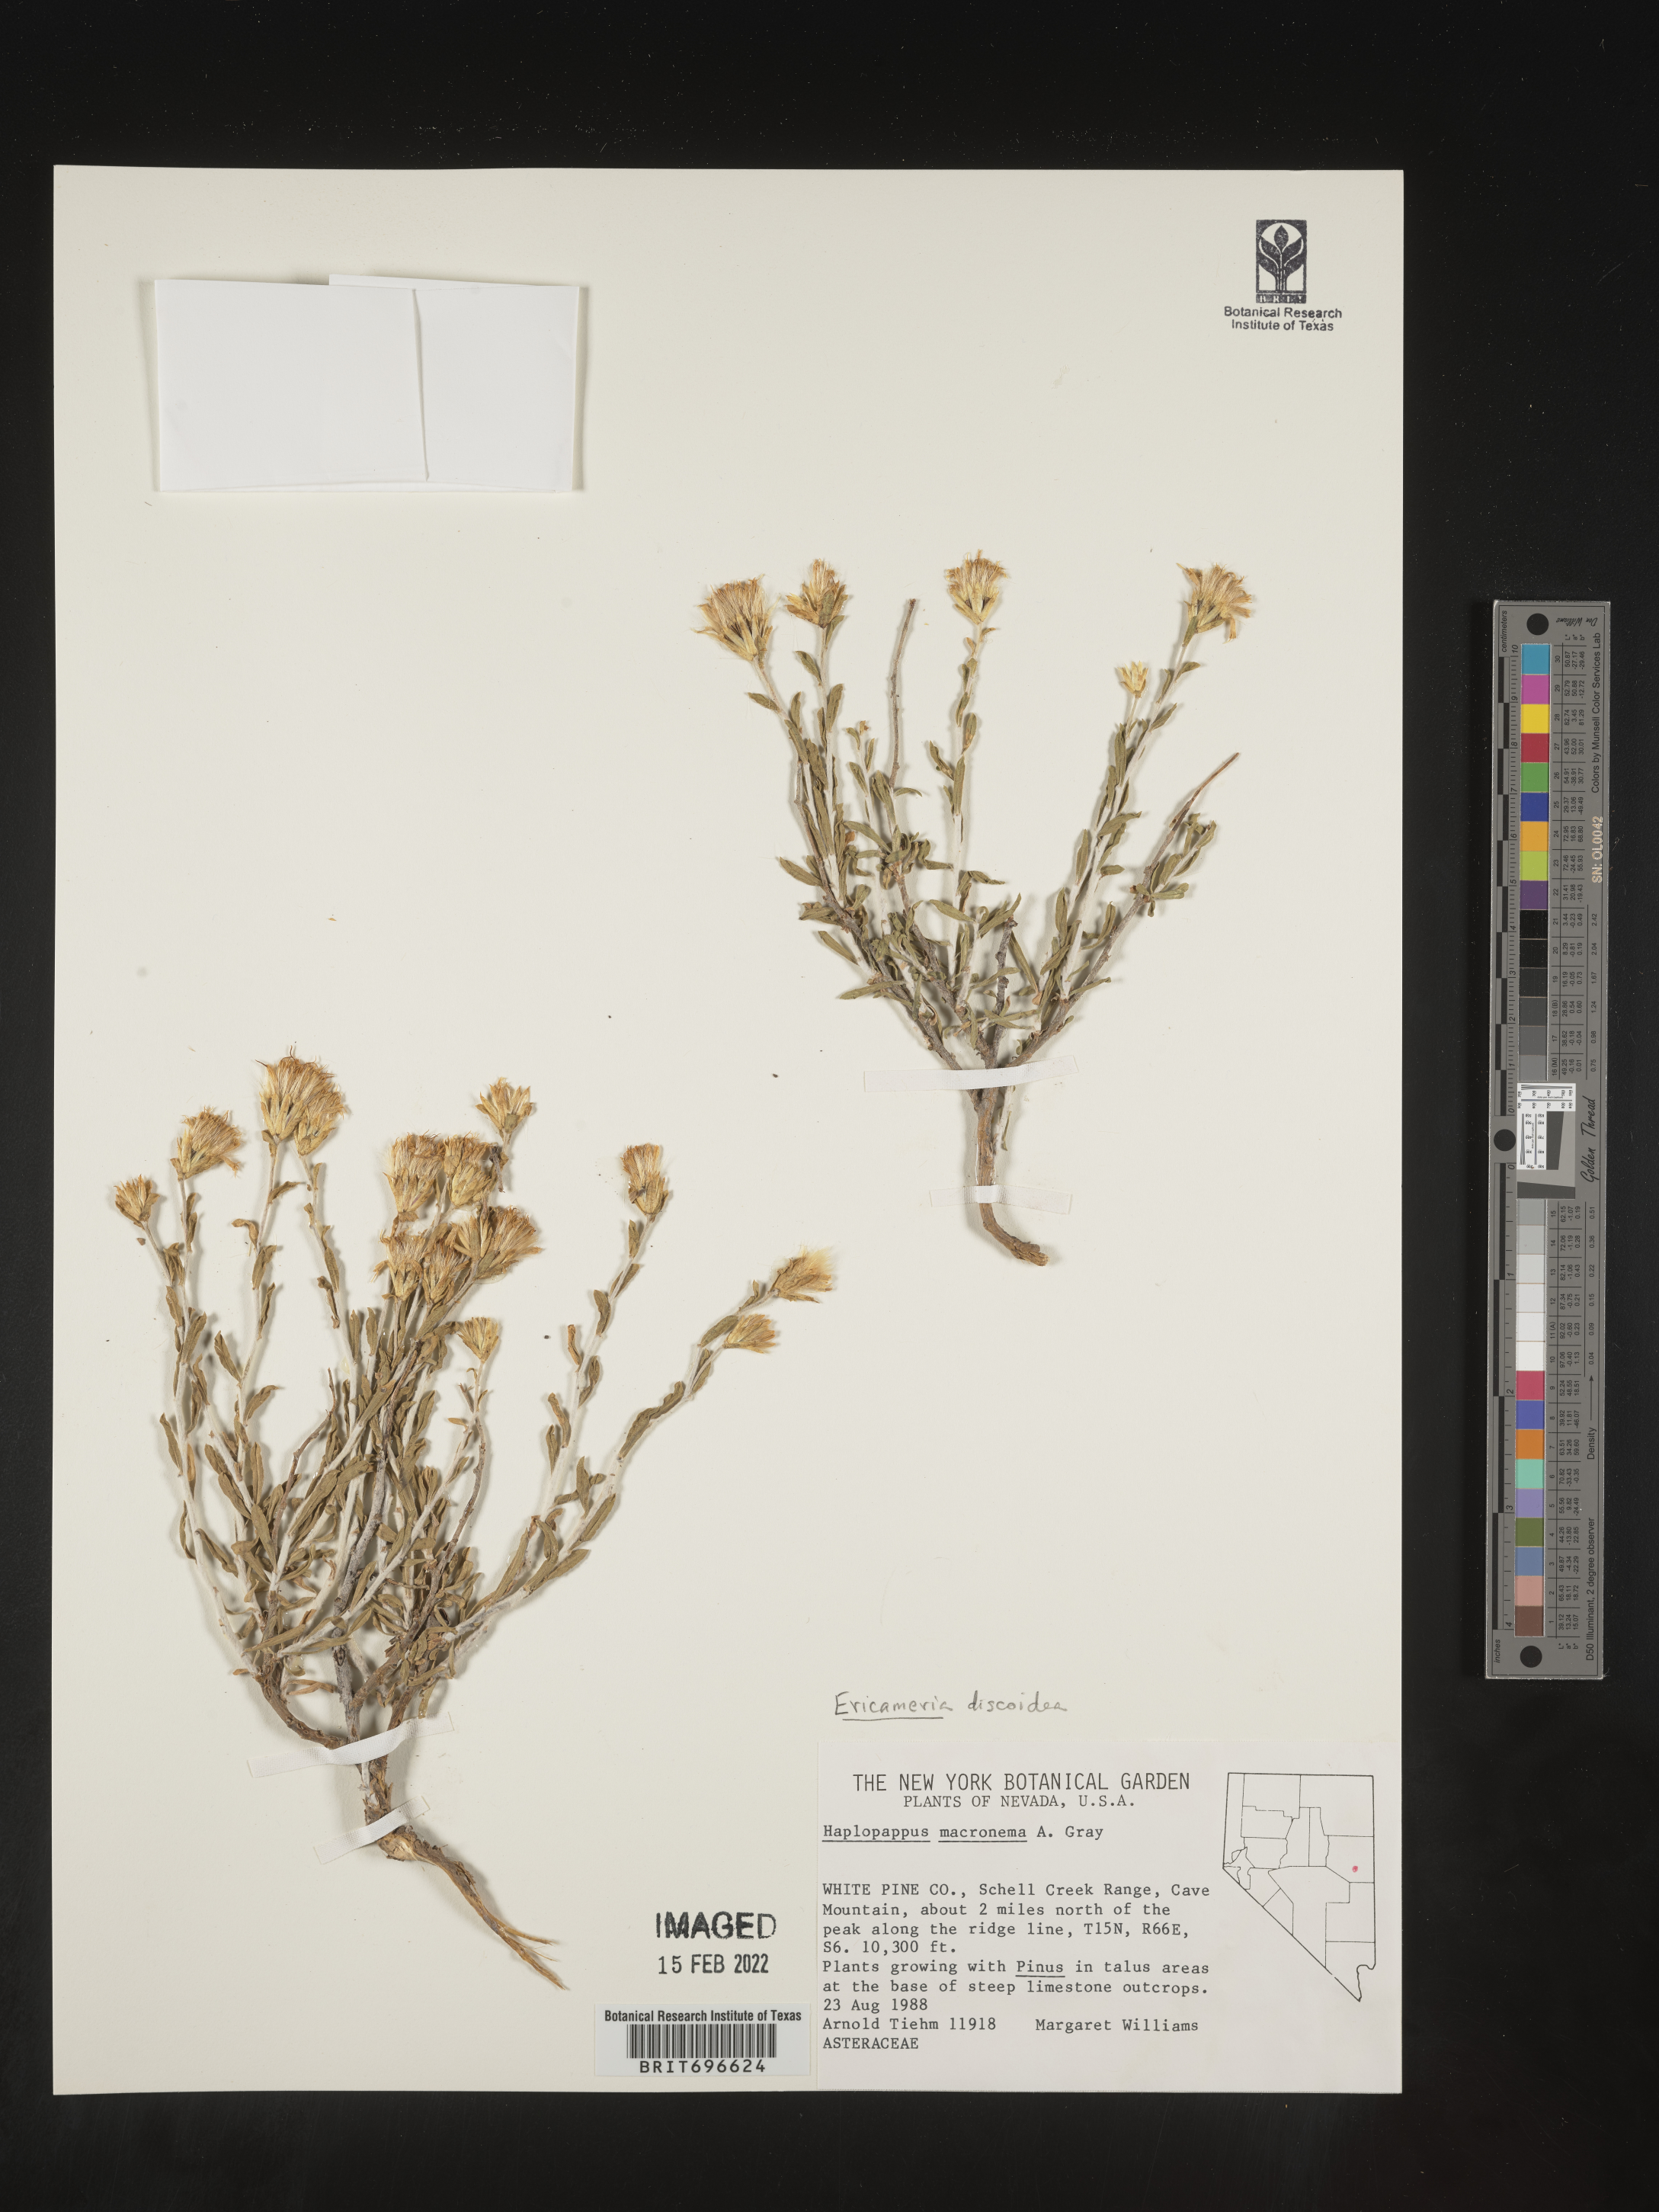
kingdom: Plantae
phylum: Tracheophyta
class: Magnoliopsida
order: Asterales
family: Asteraceae
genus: Ericameria
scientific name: Ericameria discoidea
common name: Sharp-scale goldenweed
